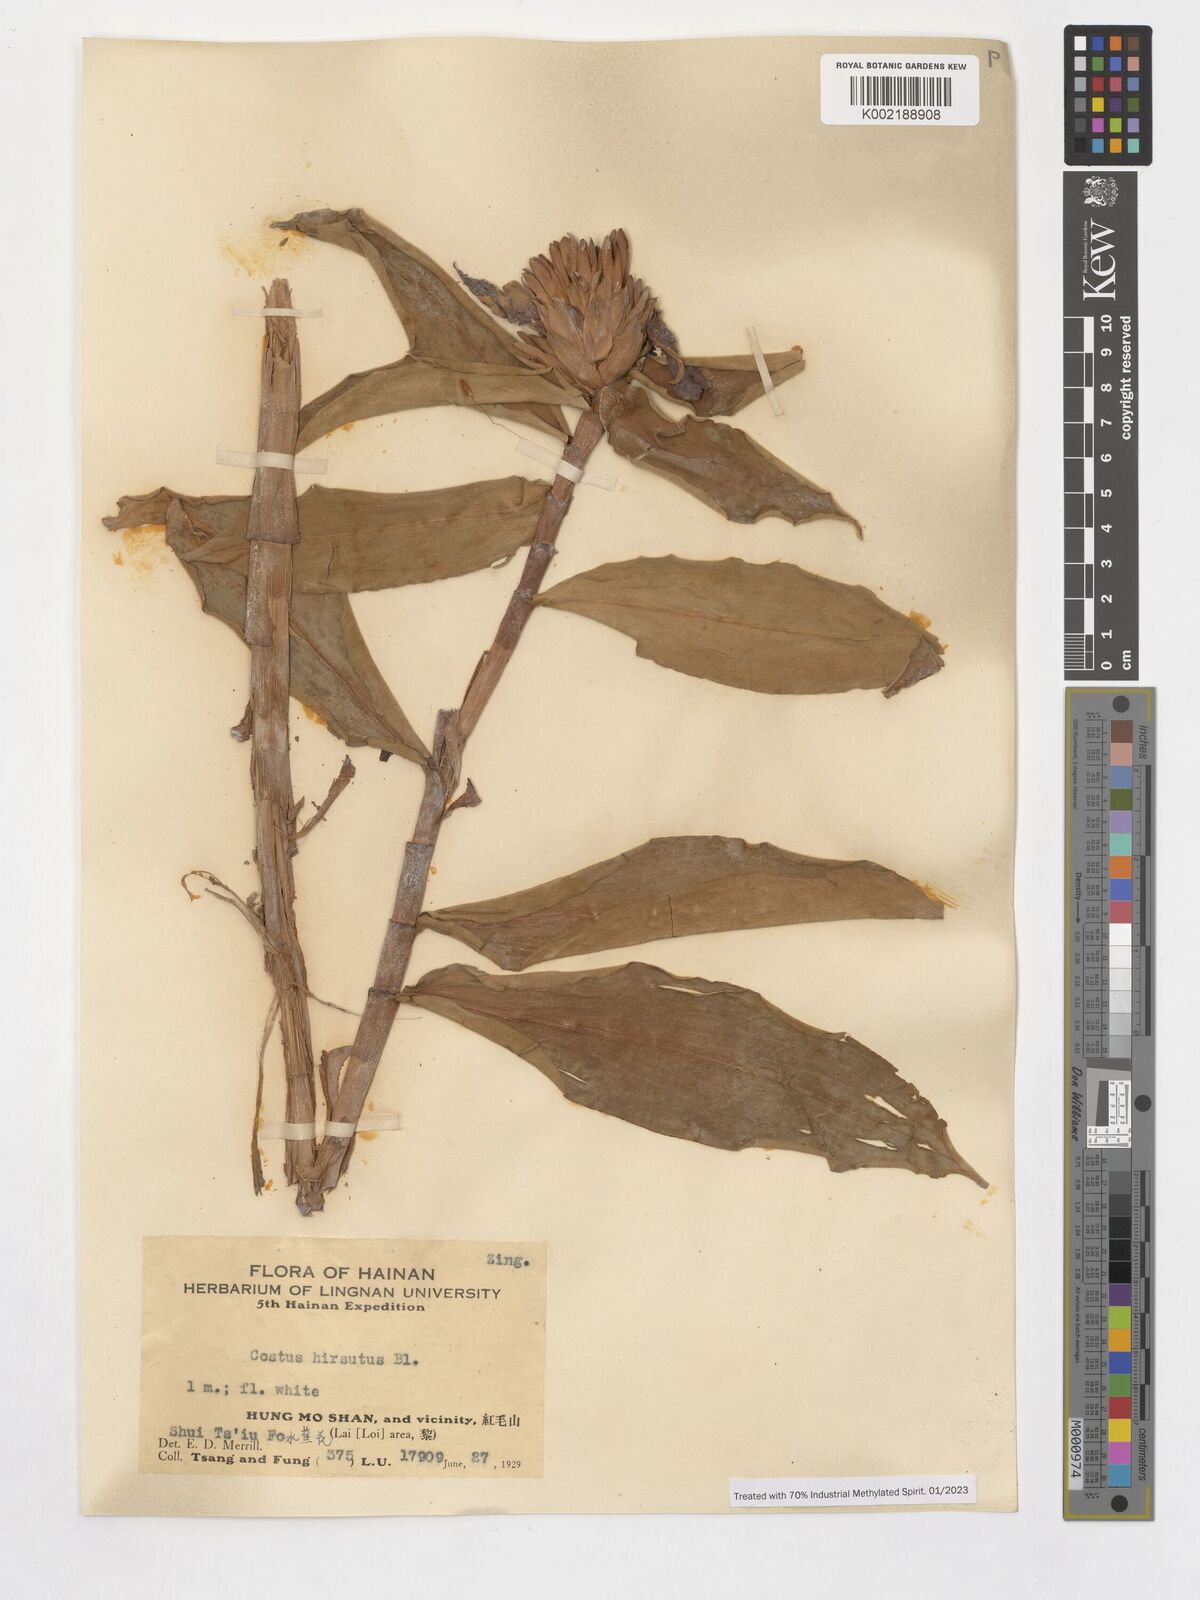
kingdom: Plantae
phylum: Tracheophyta
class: Liliopsida
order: Zingiberales
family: Costaceae
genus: Costus
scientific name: Costus villosissimus
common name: Spiral flag
